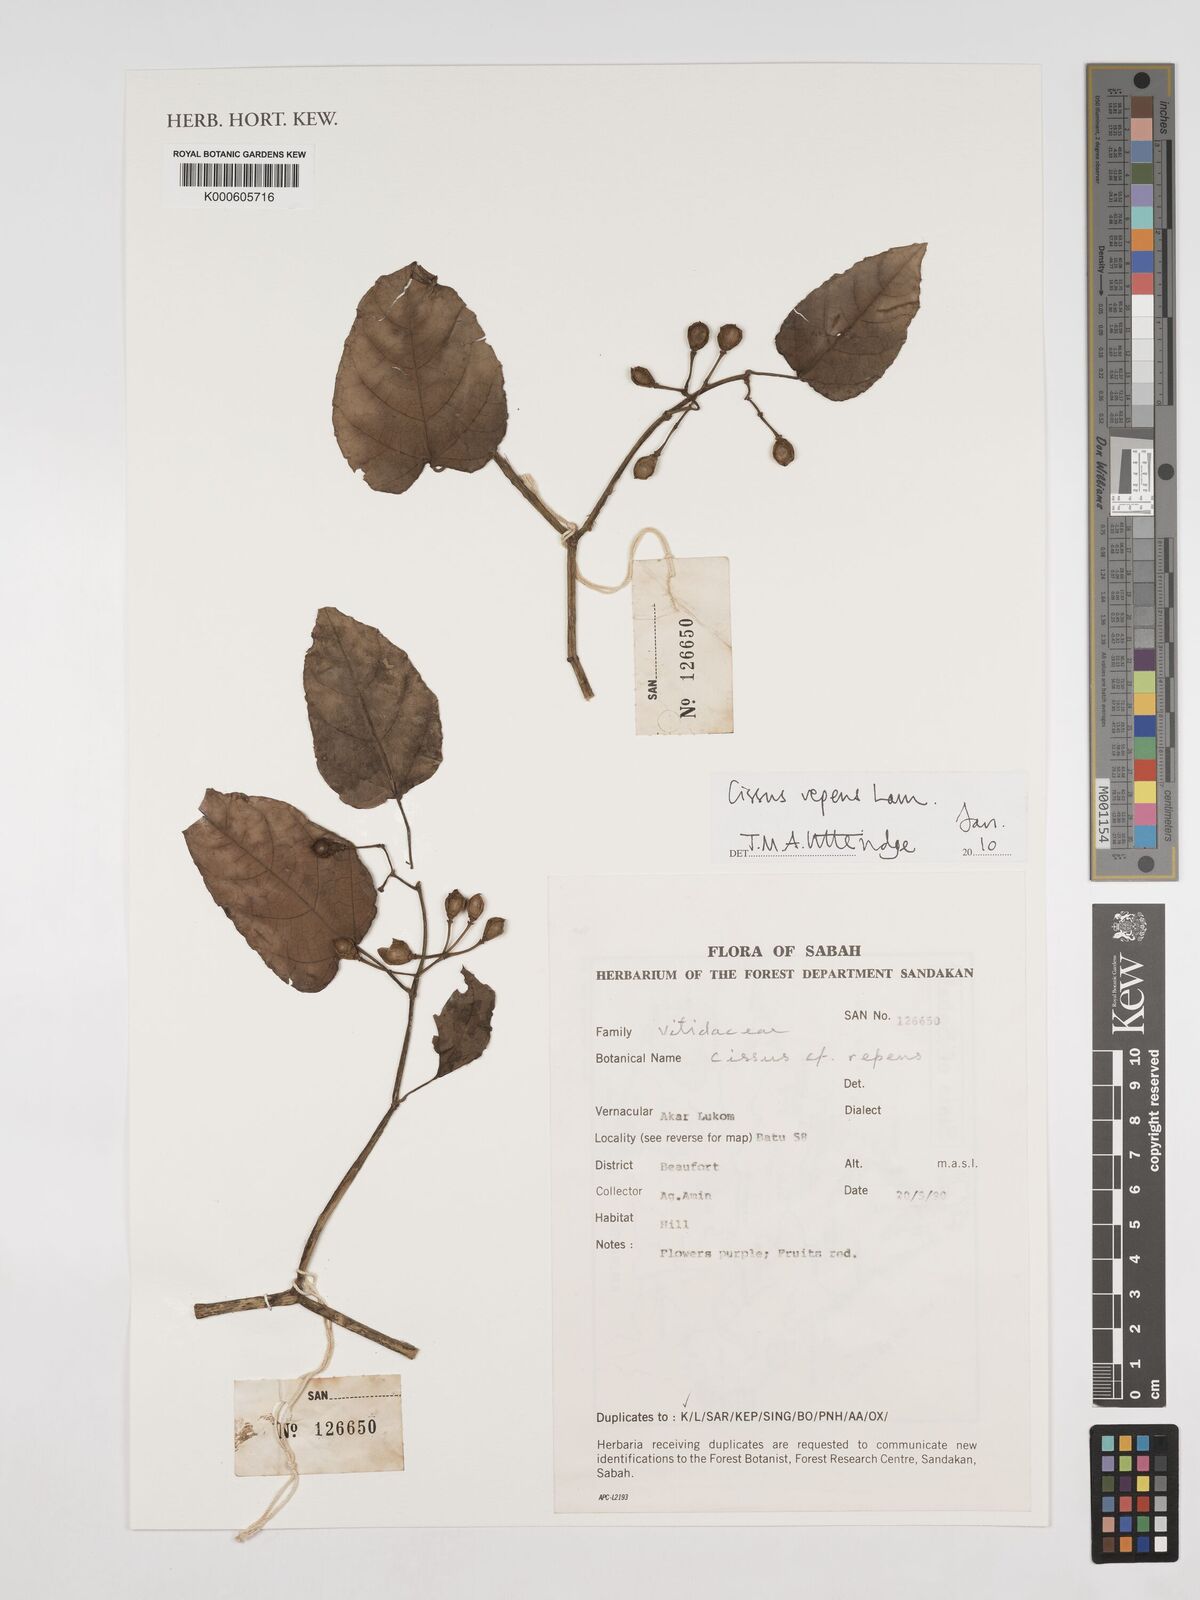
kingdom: Plantae
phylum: Tracheophyta
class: Magnoliopsida
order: Vitales
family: Vitaceae
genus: Cissus
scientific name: Cissus repens
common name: Cissus
